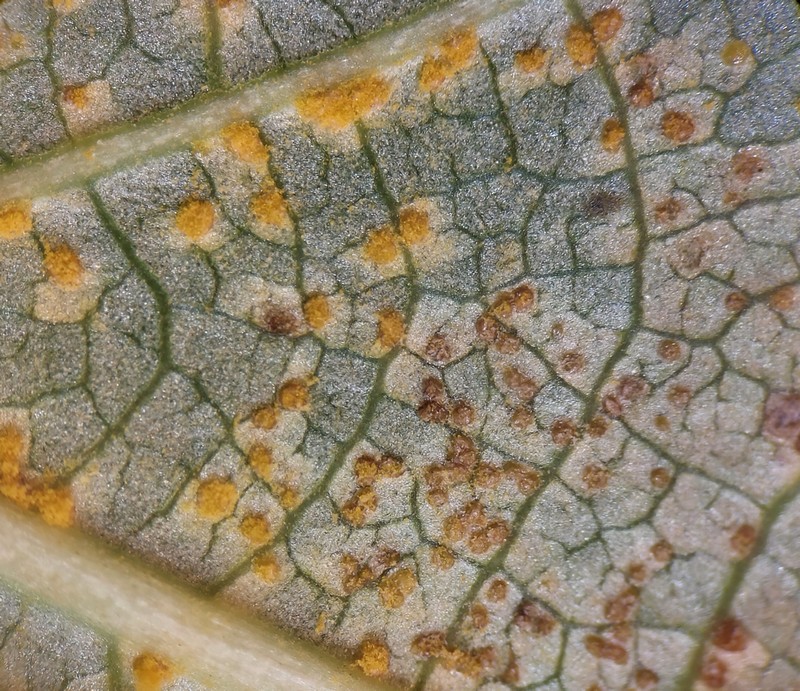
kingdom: Fungi
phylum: Basidiomycota
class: Pucciniomycetes
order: Pucciniales
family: Melampsoraceae
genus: Melampsora
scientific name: Melampsora laricis-populina
